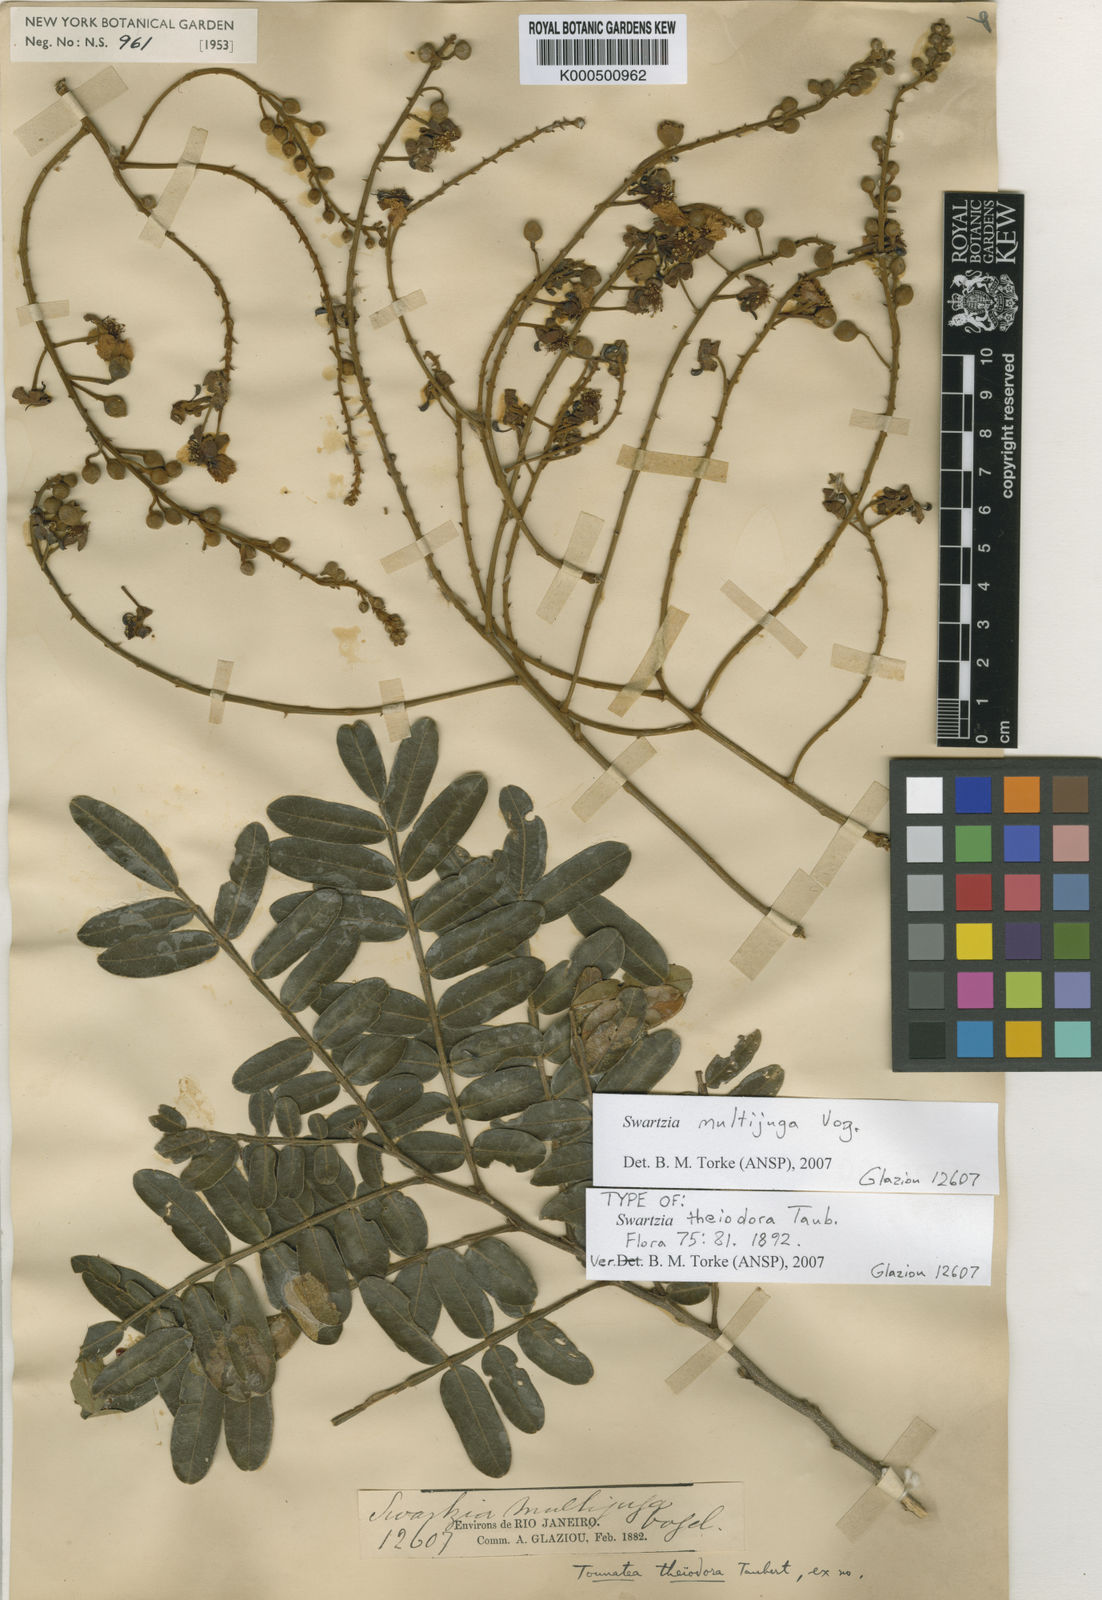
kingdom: Plantae
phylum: Tracheophyta
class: Magnoliopsida
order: Fabales
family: Fabaceae
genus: Swartzia
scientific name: Swartzia multijuga
